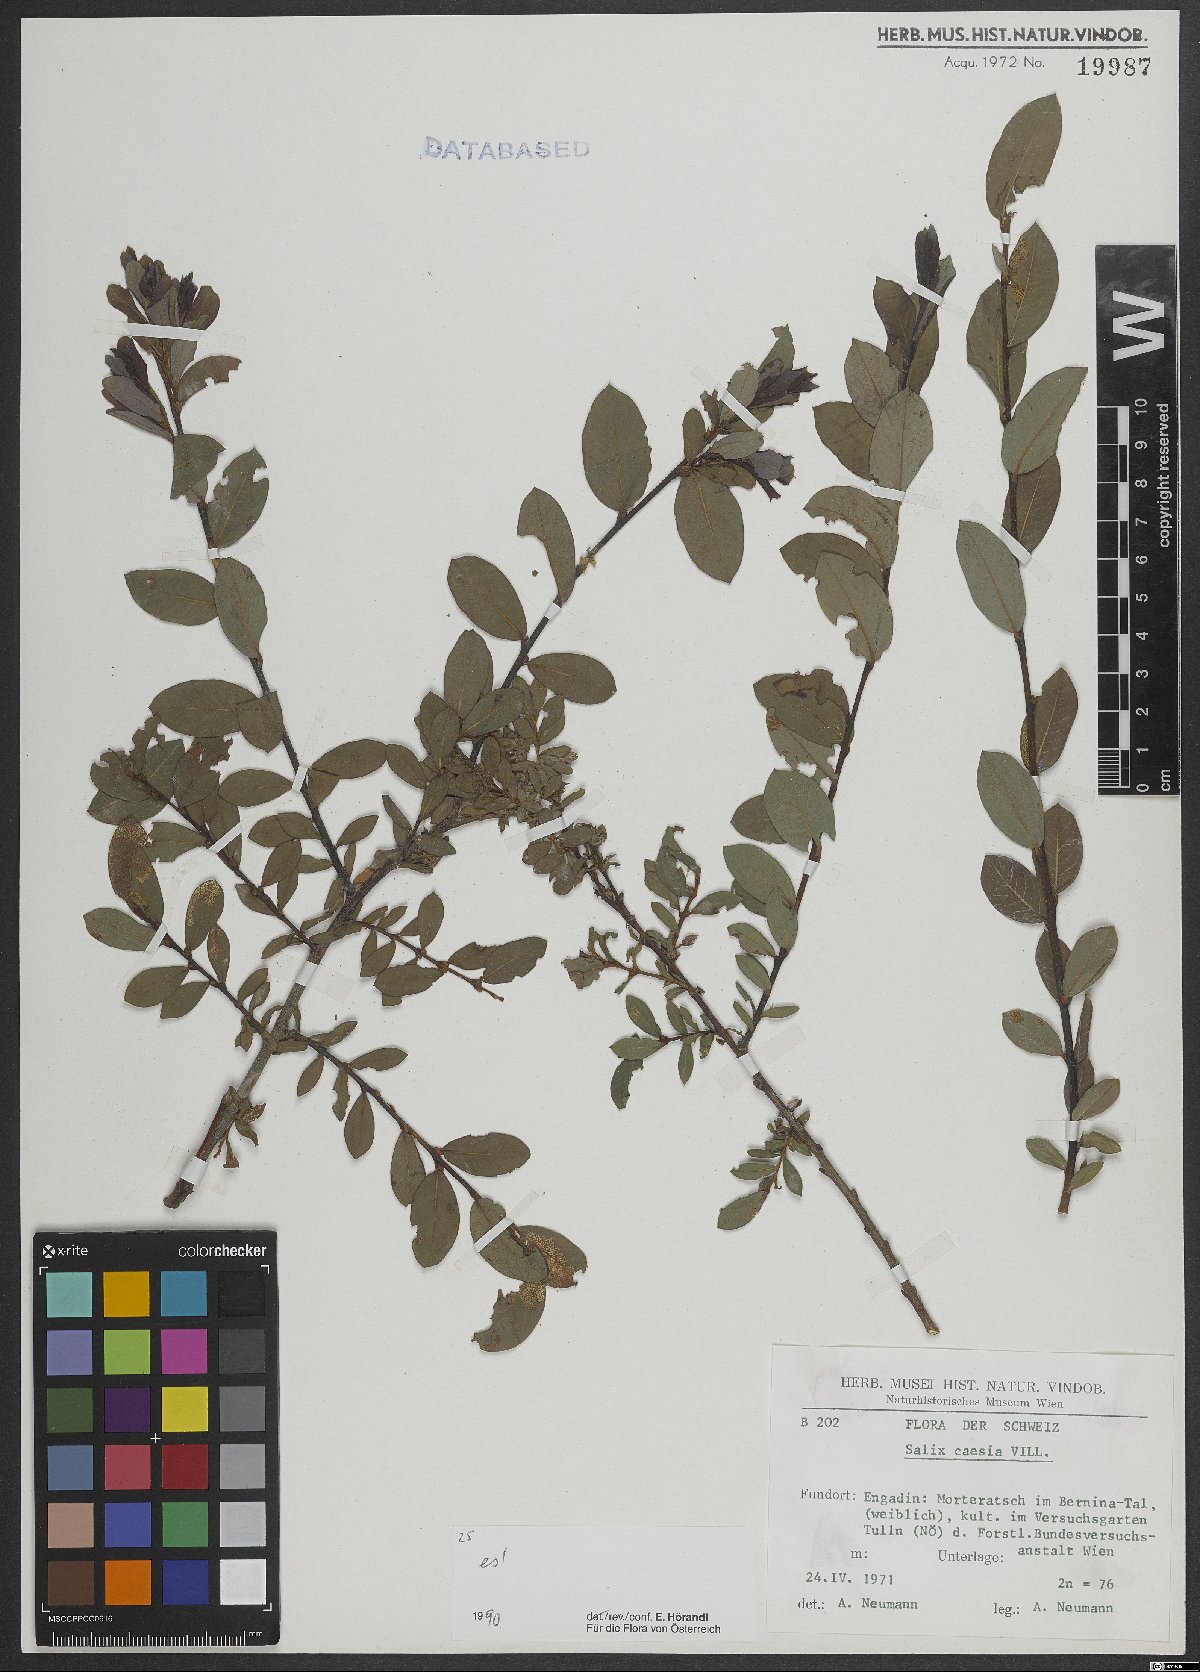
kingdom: Plantae
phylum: Tracheophyta
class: Magnoliopsida
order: Malpighiales
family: Salicaceae
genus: Salix
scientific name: Salix caesia
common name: Blue willow
